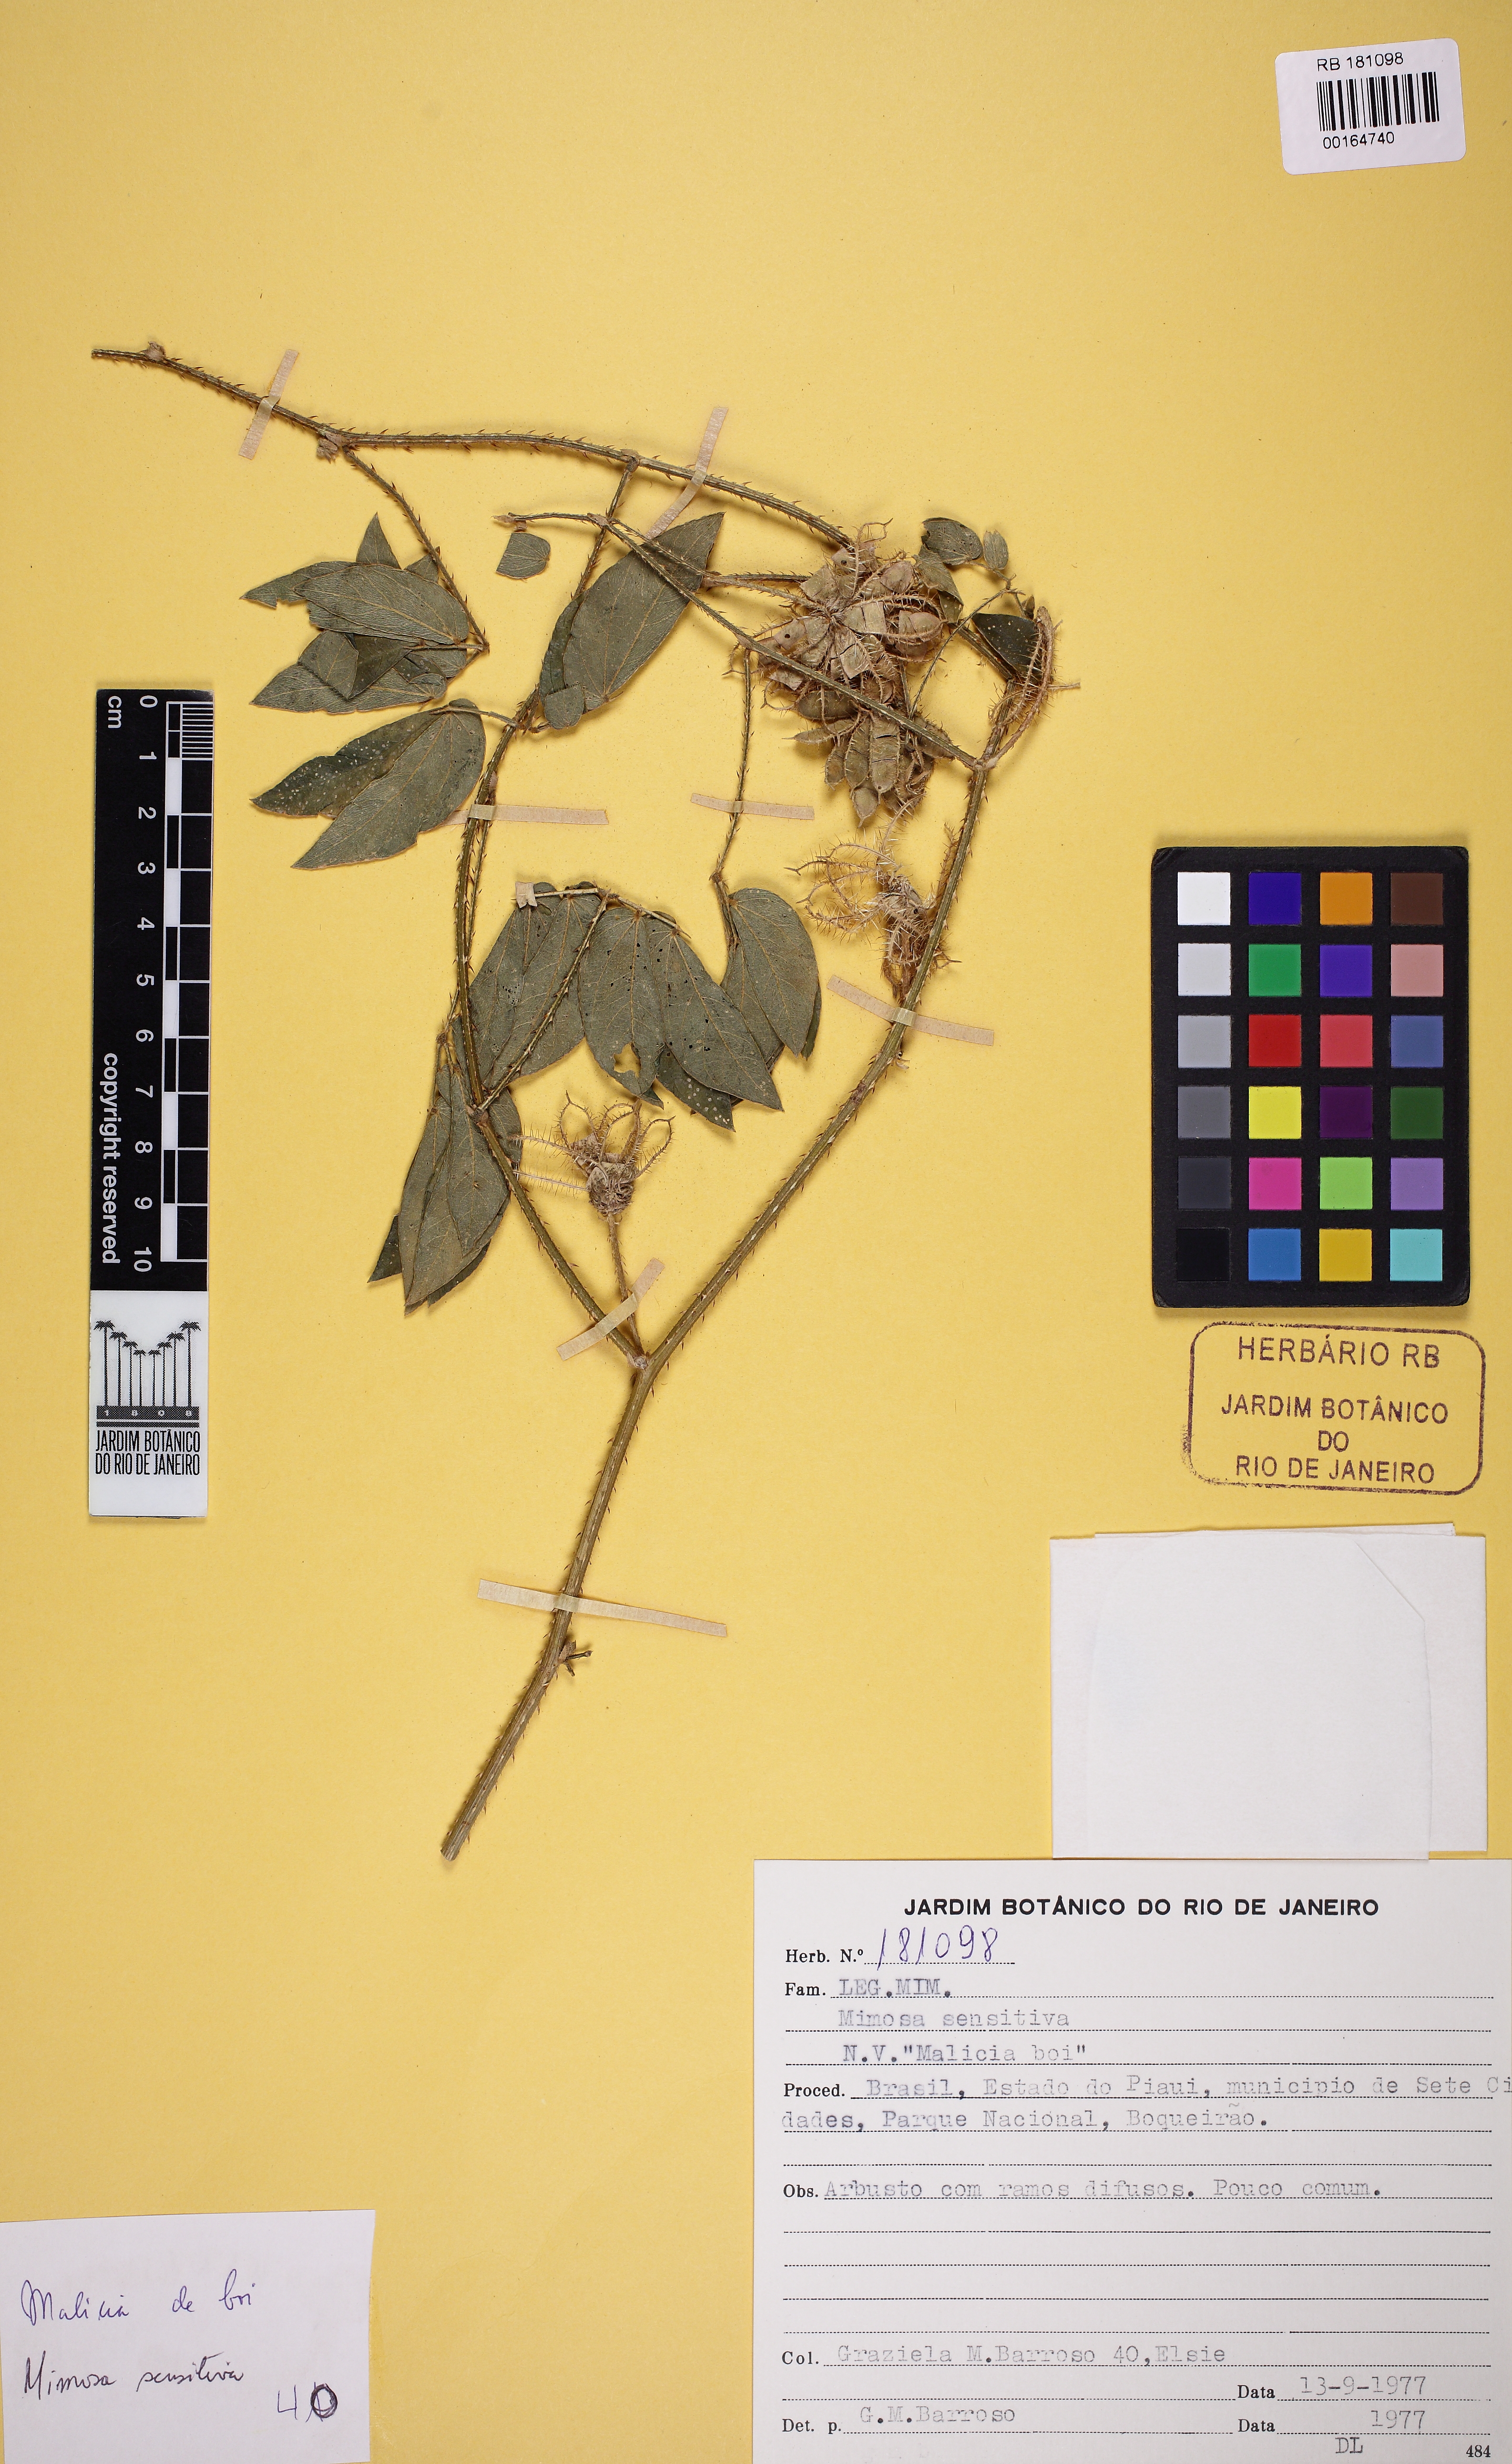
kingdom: Plantae
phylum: Tracheophyta
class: Magnoliopsida
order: Fabales
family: Fabaceae
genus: Mimosa
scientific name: Mimosa sensitiva
